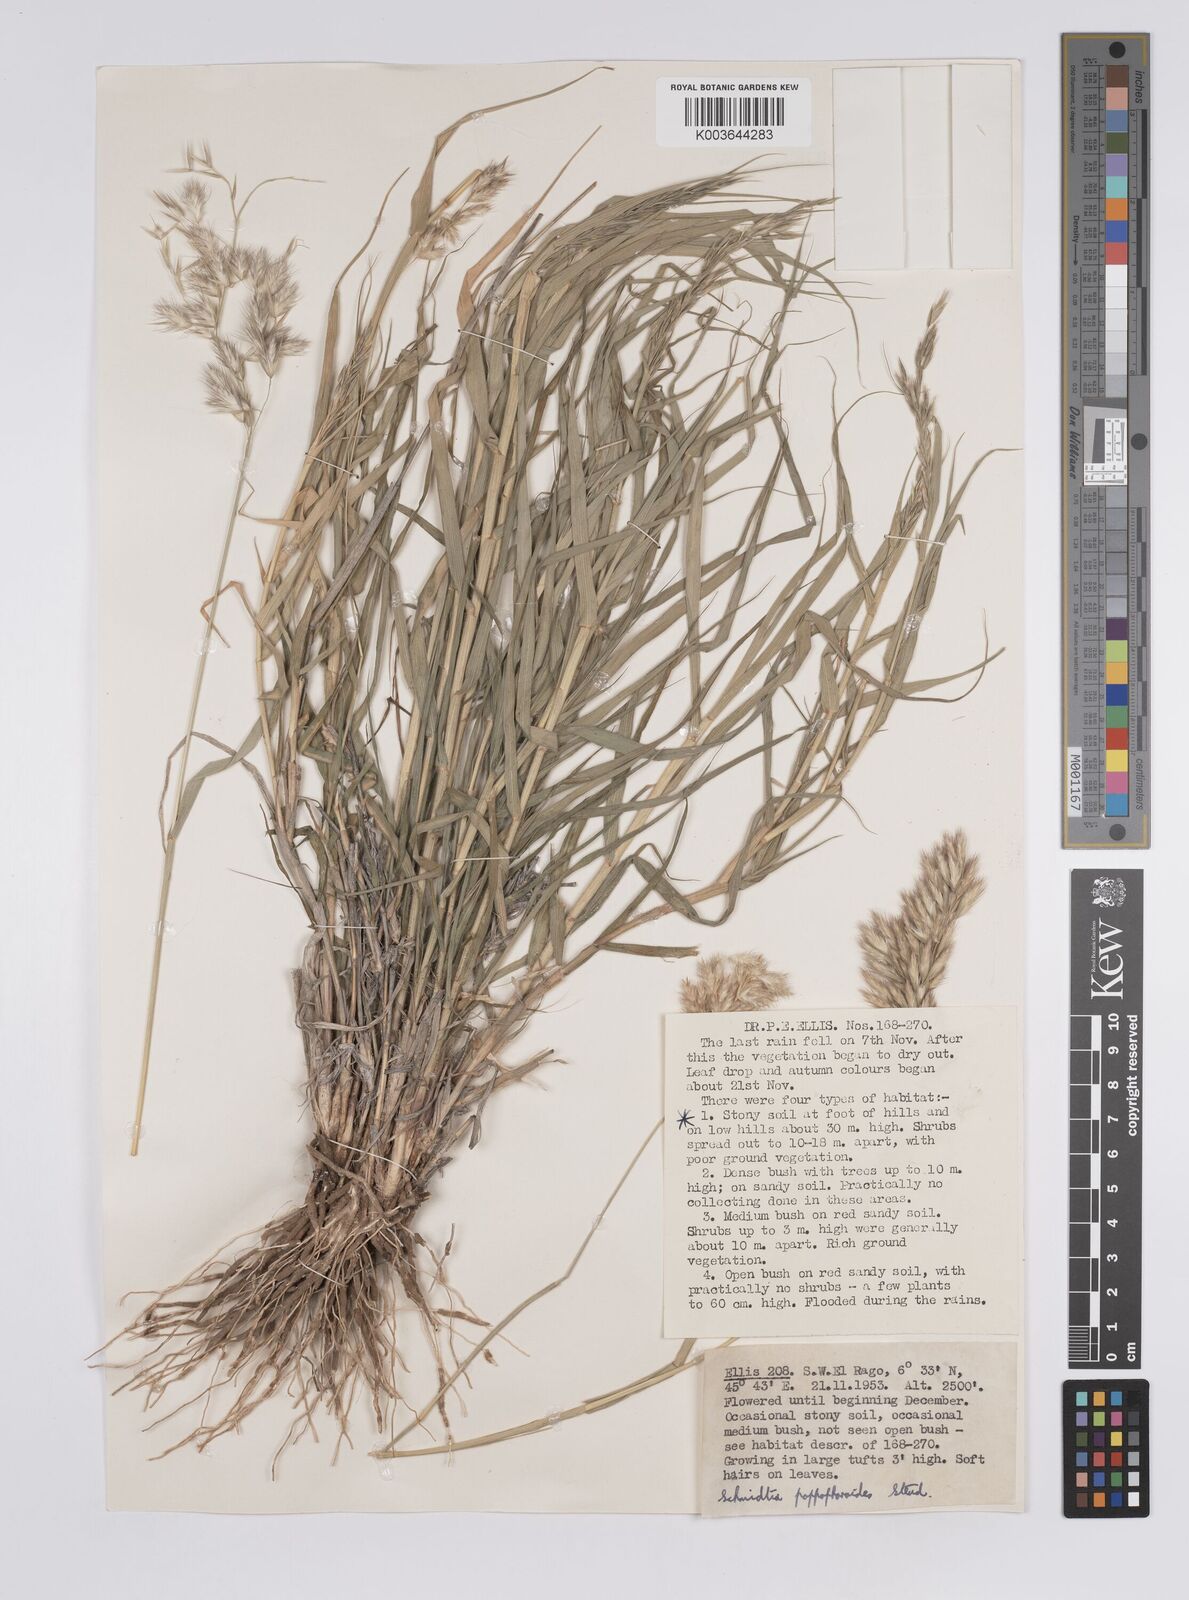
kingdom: Plantae
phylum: Tracheophyta
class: Liliopsida
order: Poales
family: Poaceae
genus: Schmidtia
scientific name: Schmidtia pappophoroides
